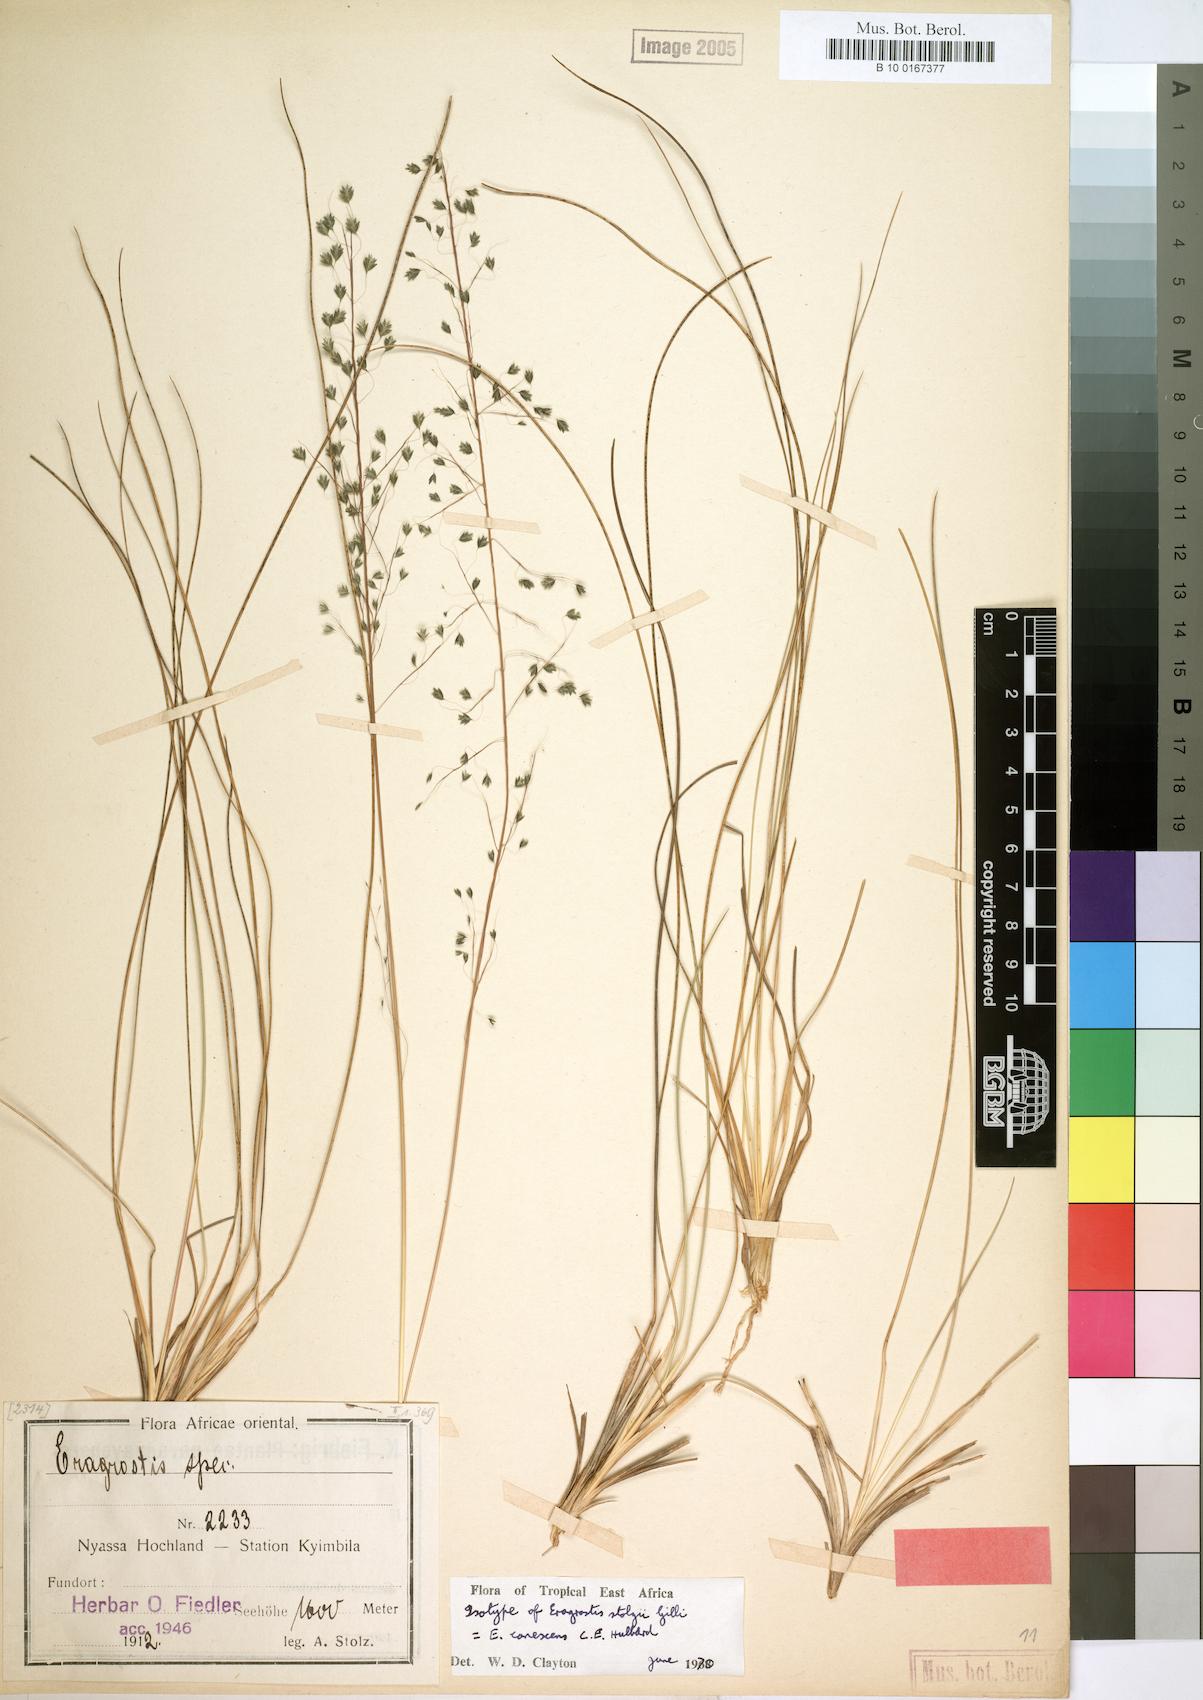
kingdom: Plantae
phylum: Tracheophyta
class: Liliopsida
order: Poales
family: Poaceae
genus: Eragrostis
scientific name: Eragrostis canescens
